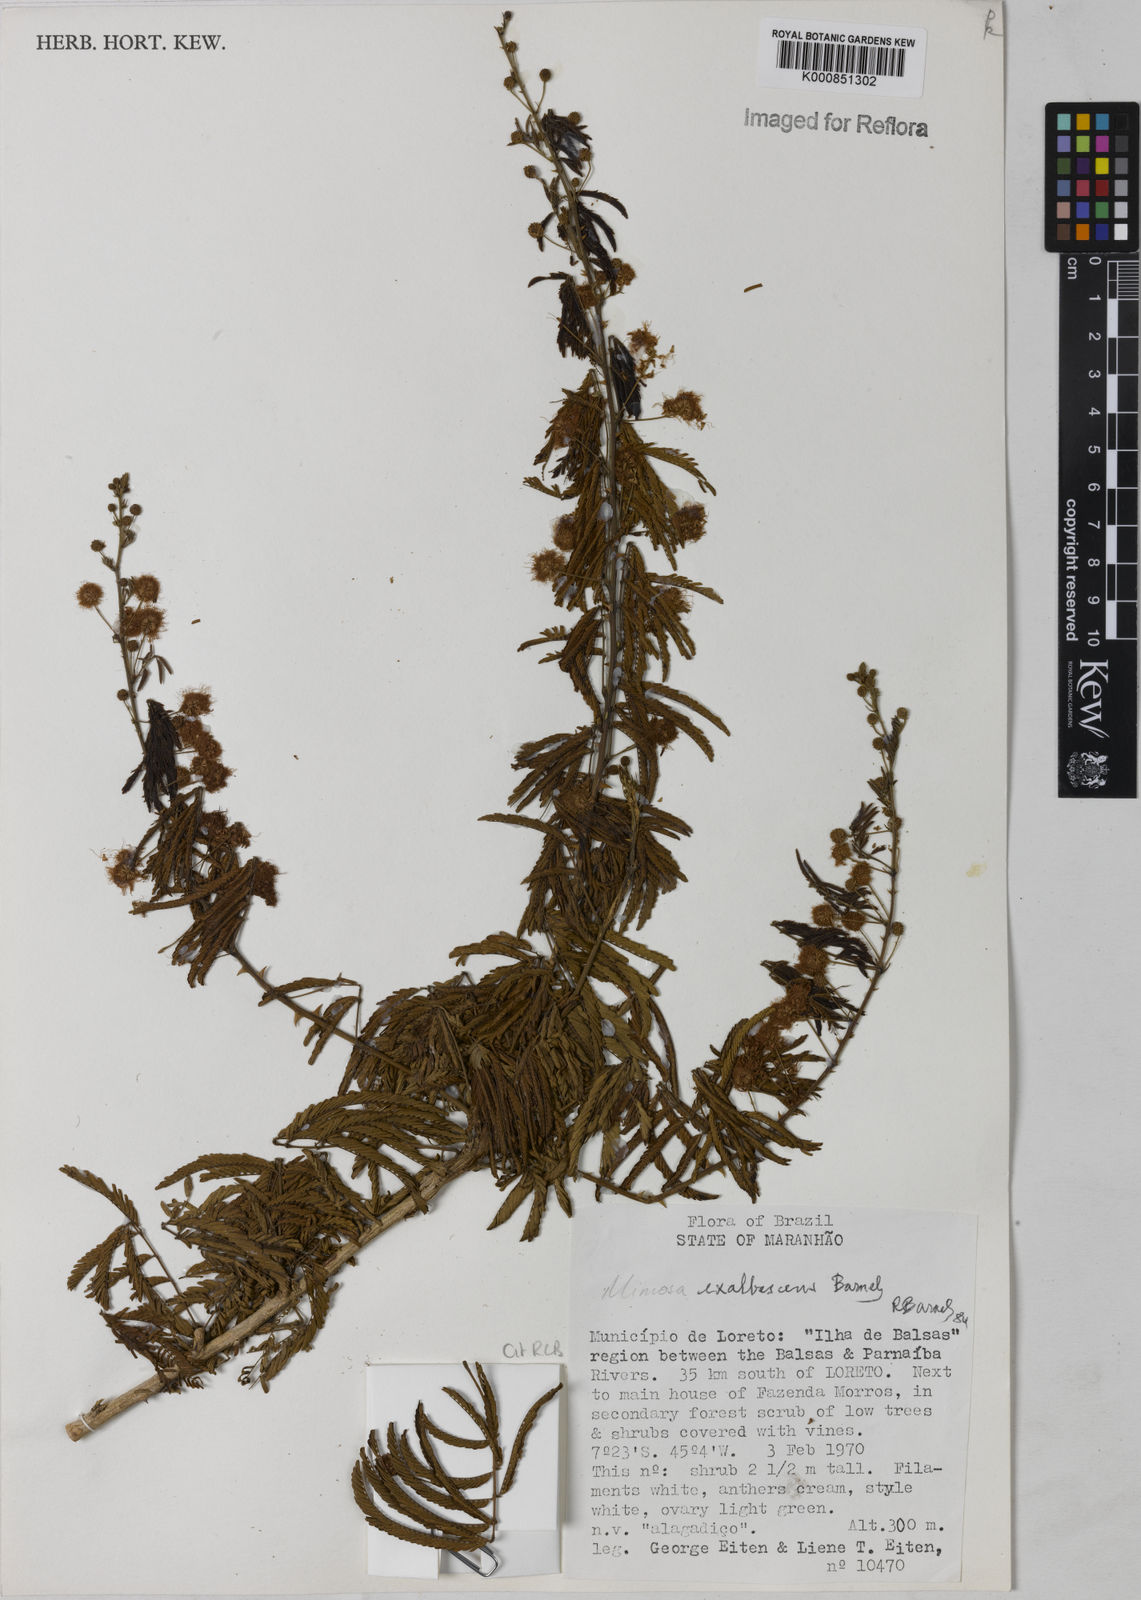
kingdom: Plantae
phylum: Tracheophyta
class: Magnoliopsida
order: Fabales
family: Fabaceae
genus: Mimosa
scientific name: Mimosa exalbescens
